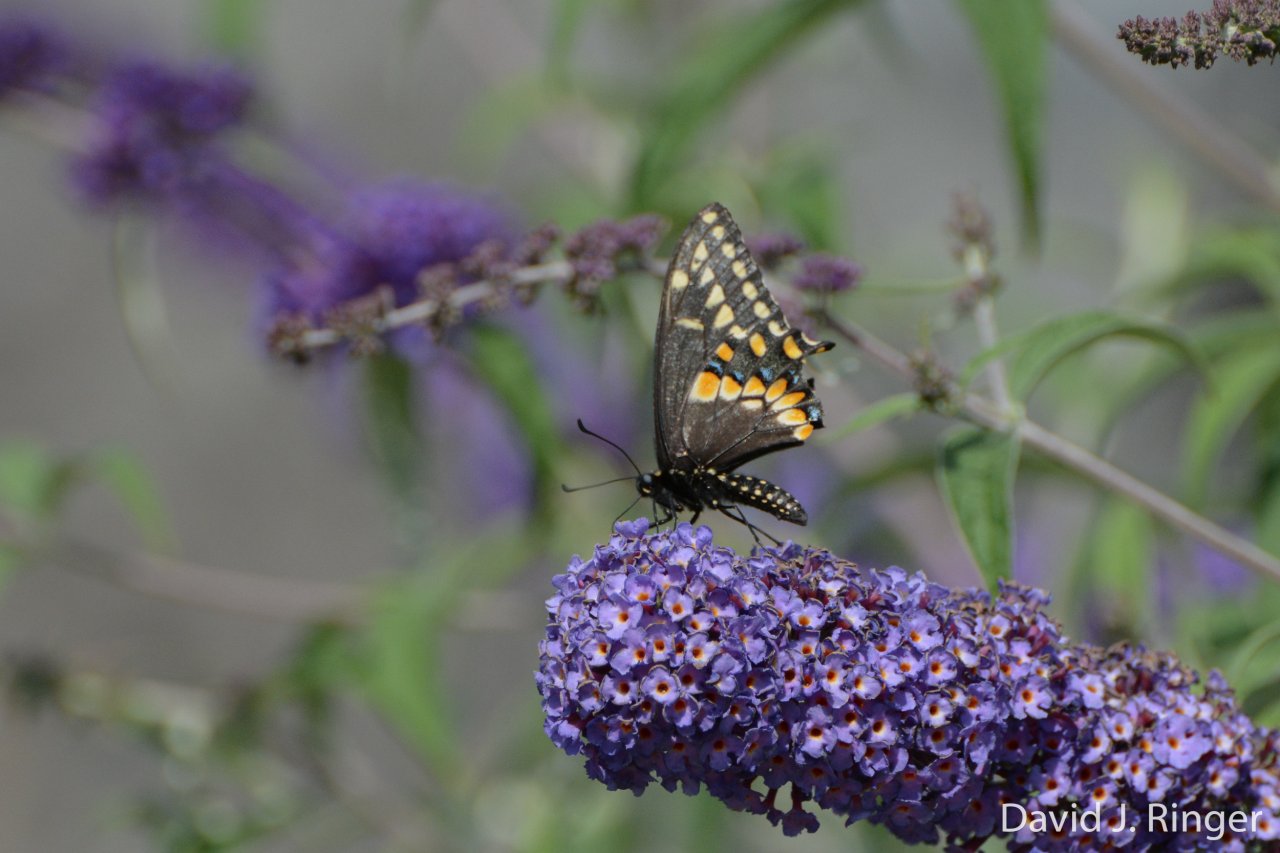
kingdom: Animalia
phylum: Arthropoda
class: Insecta
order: Lepidoptera
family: Papilionidae
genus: Papilio
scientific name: Papilio polyxenes
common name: Black Swallowtail
